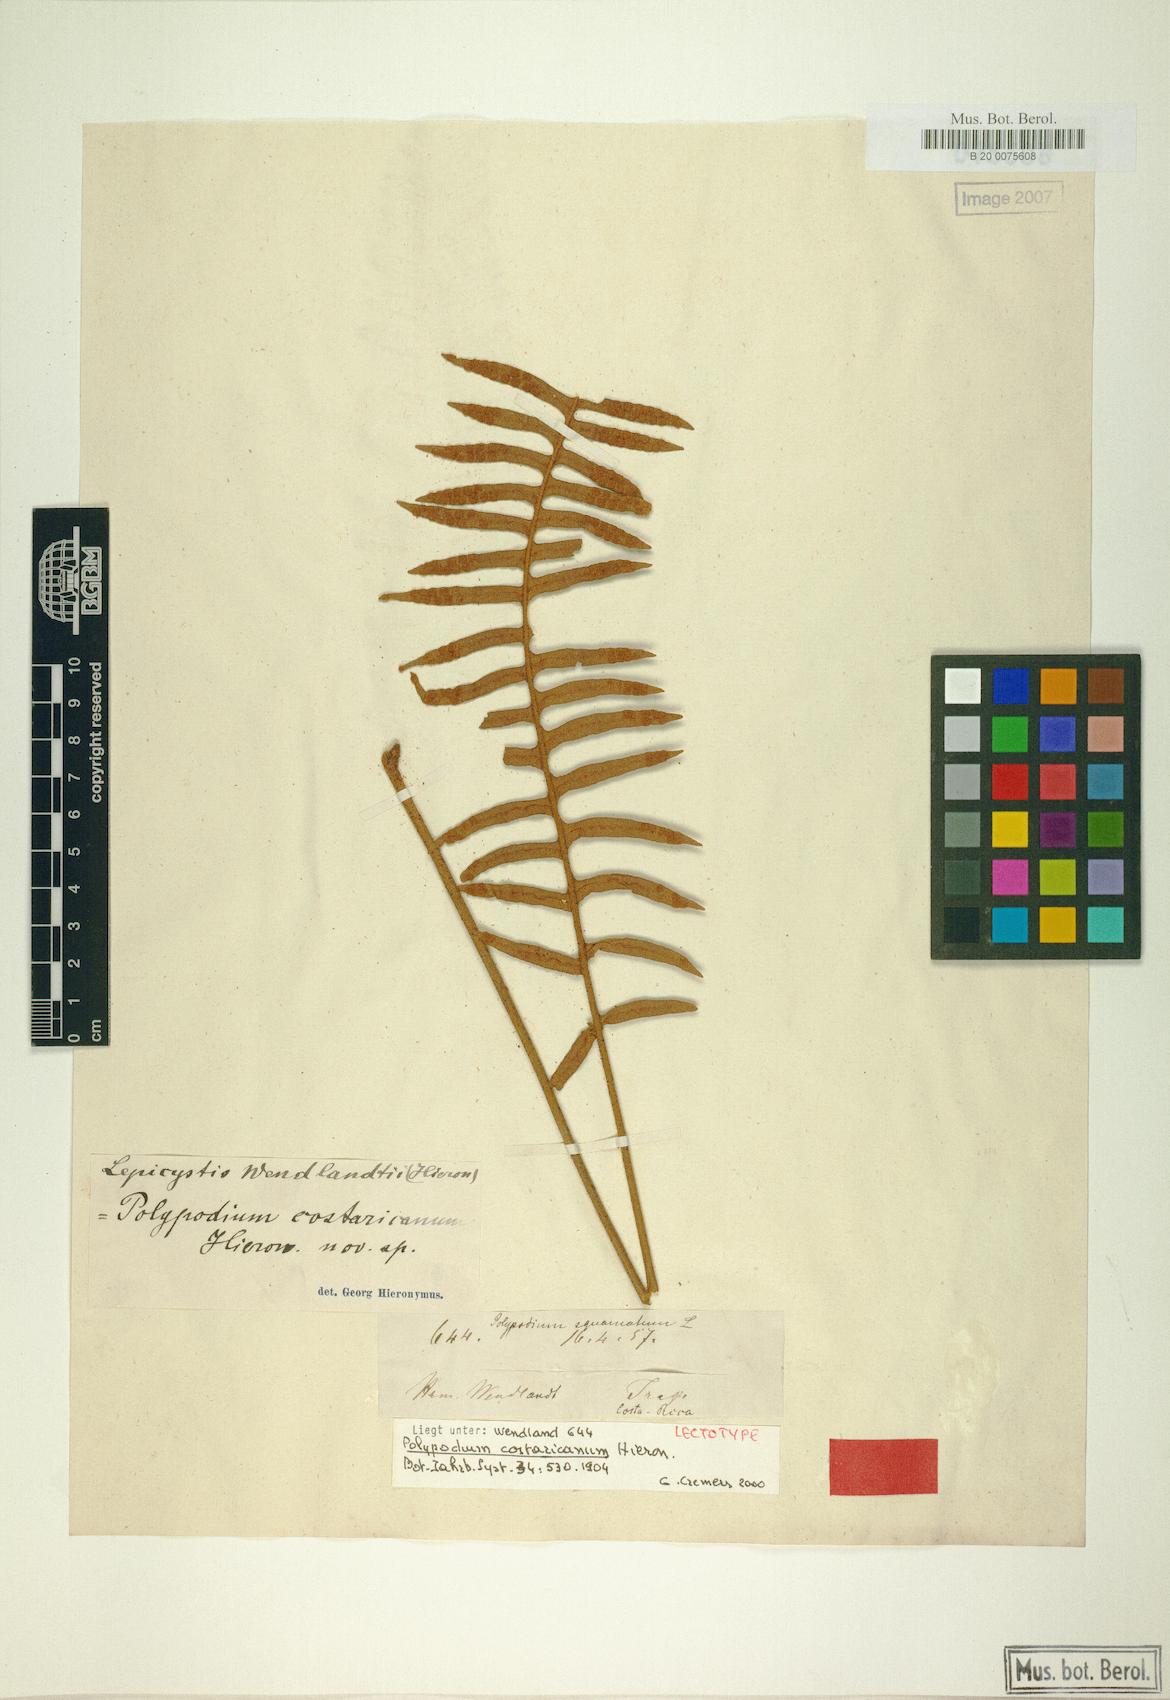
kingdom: Plantae
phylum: Tracheophyta
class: Polypodiopsida
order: Polypodiales
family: Polypodiaceae
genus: Pleopeltis
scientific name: Pleopeltis myriolepis
